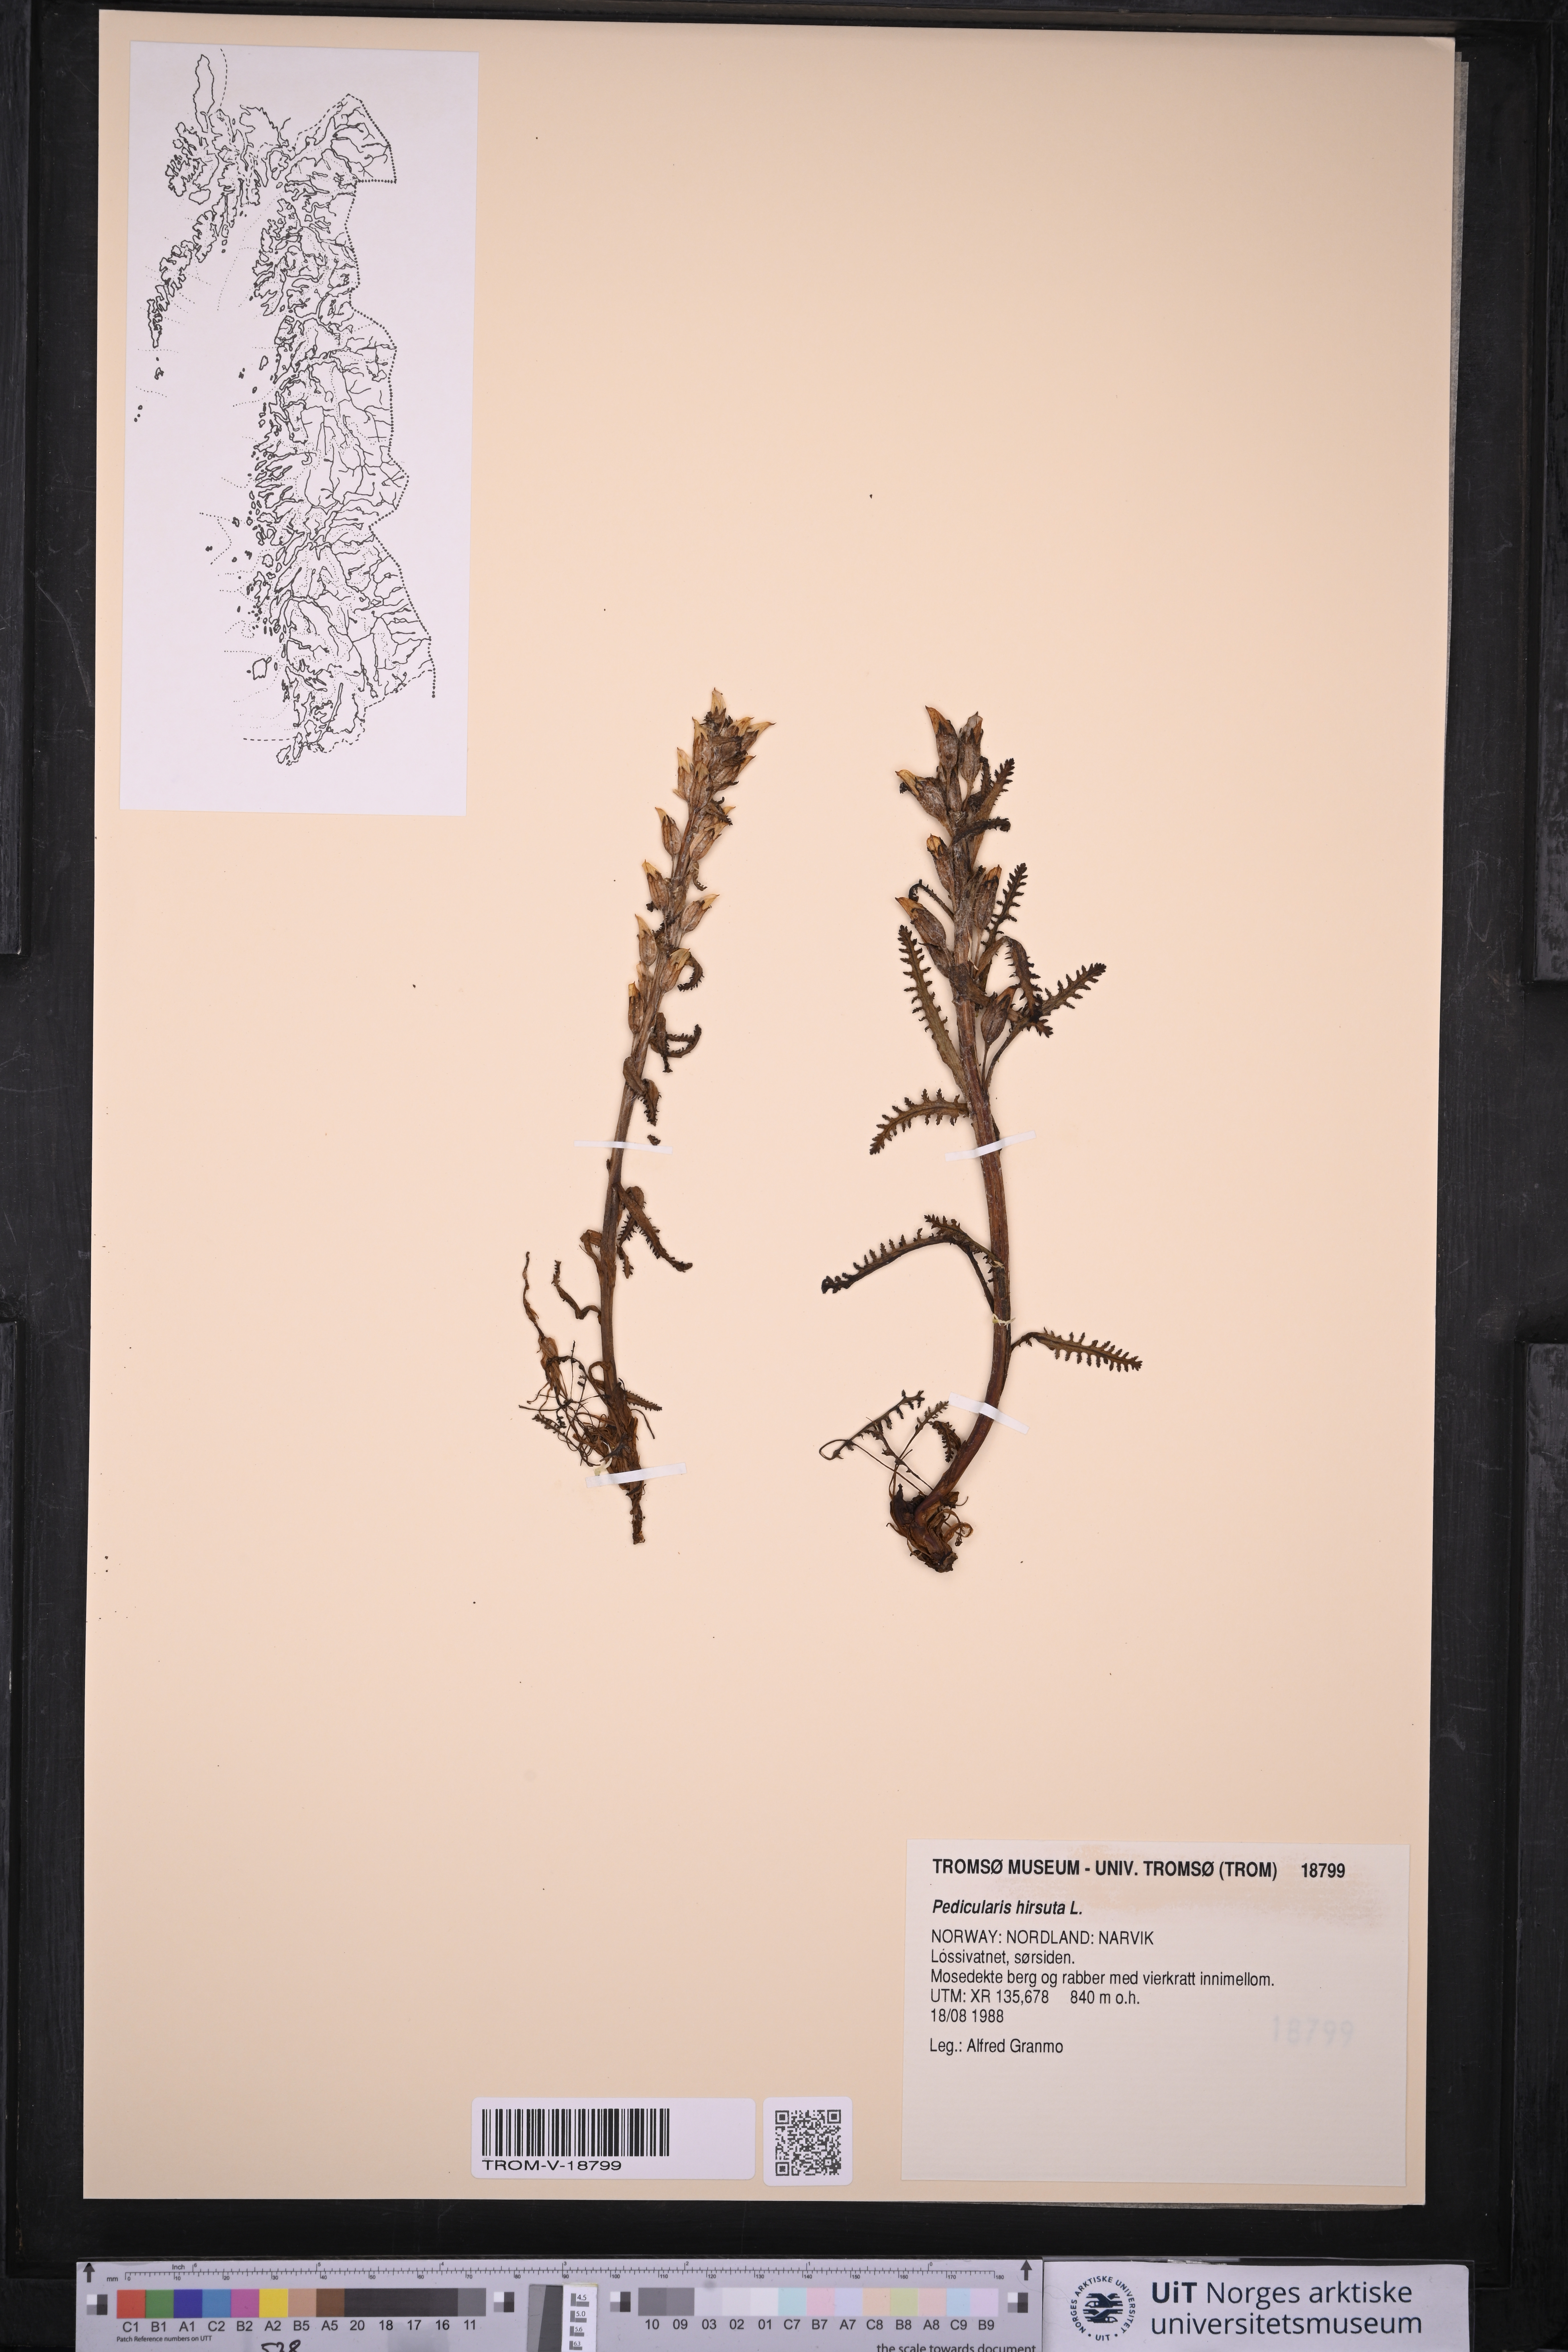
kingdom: Plantae
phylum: Tracheophyta
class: Magnoliopsida
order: Lamiales
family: Orobanchaceae
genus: Pedicularis
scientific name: Pedicularis hirsuta
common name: Hairy lousewort
